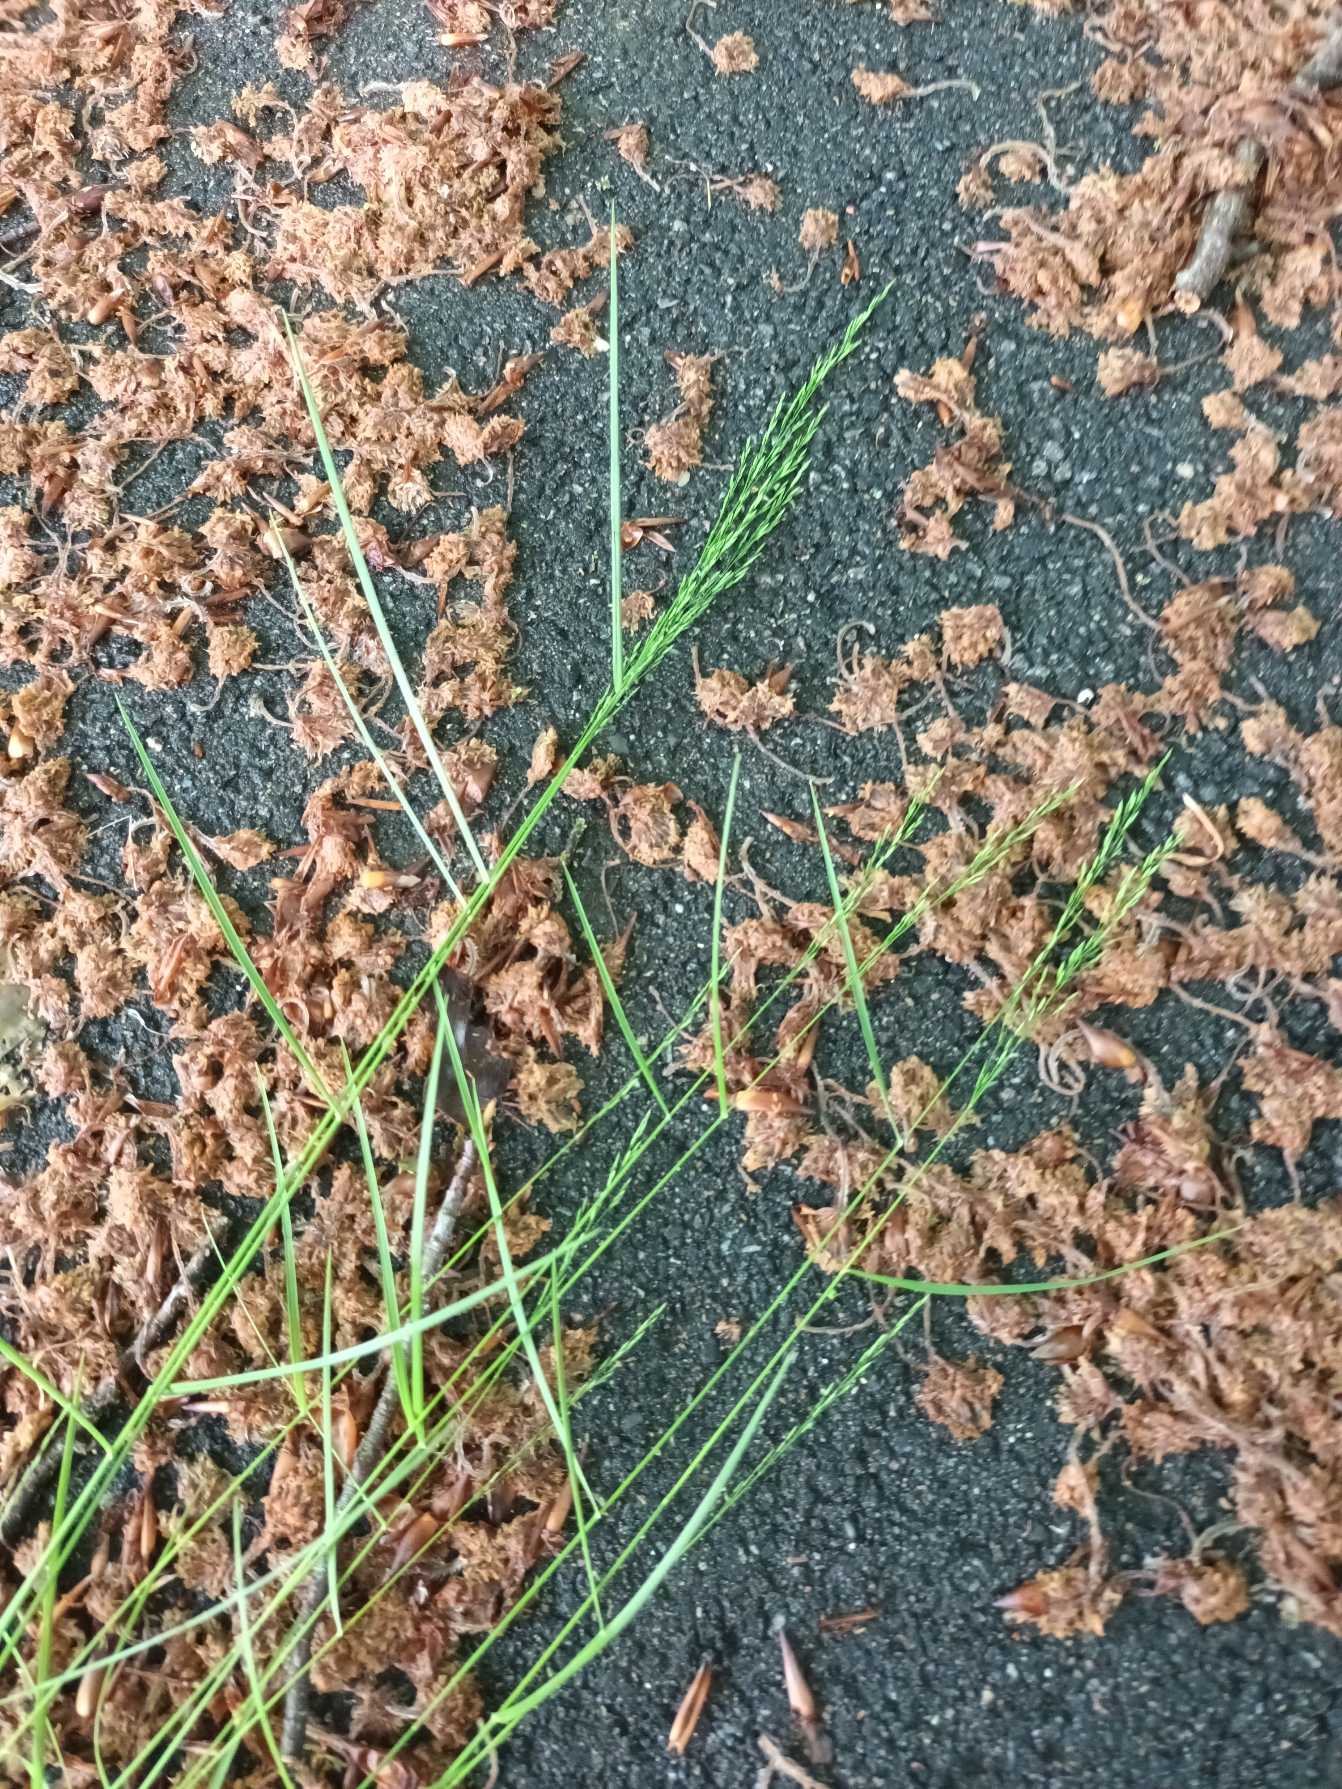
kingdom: Plantae
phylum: Tracheophyta
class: Liliopsida
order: Poales
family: Poaceae
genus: Poa
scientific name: Poa nemoralis
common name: Lund-rapgræs
